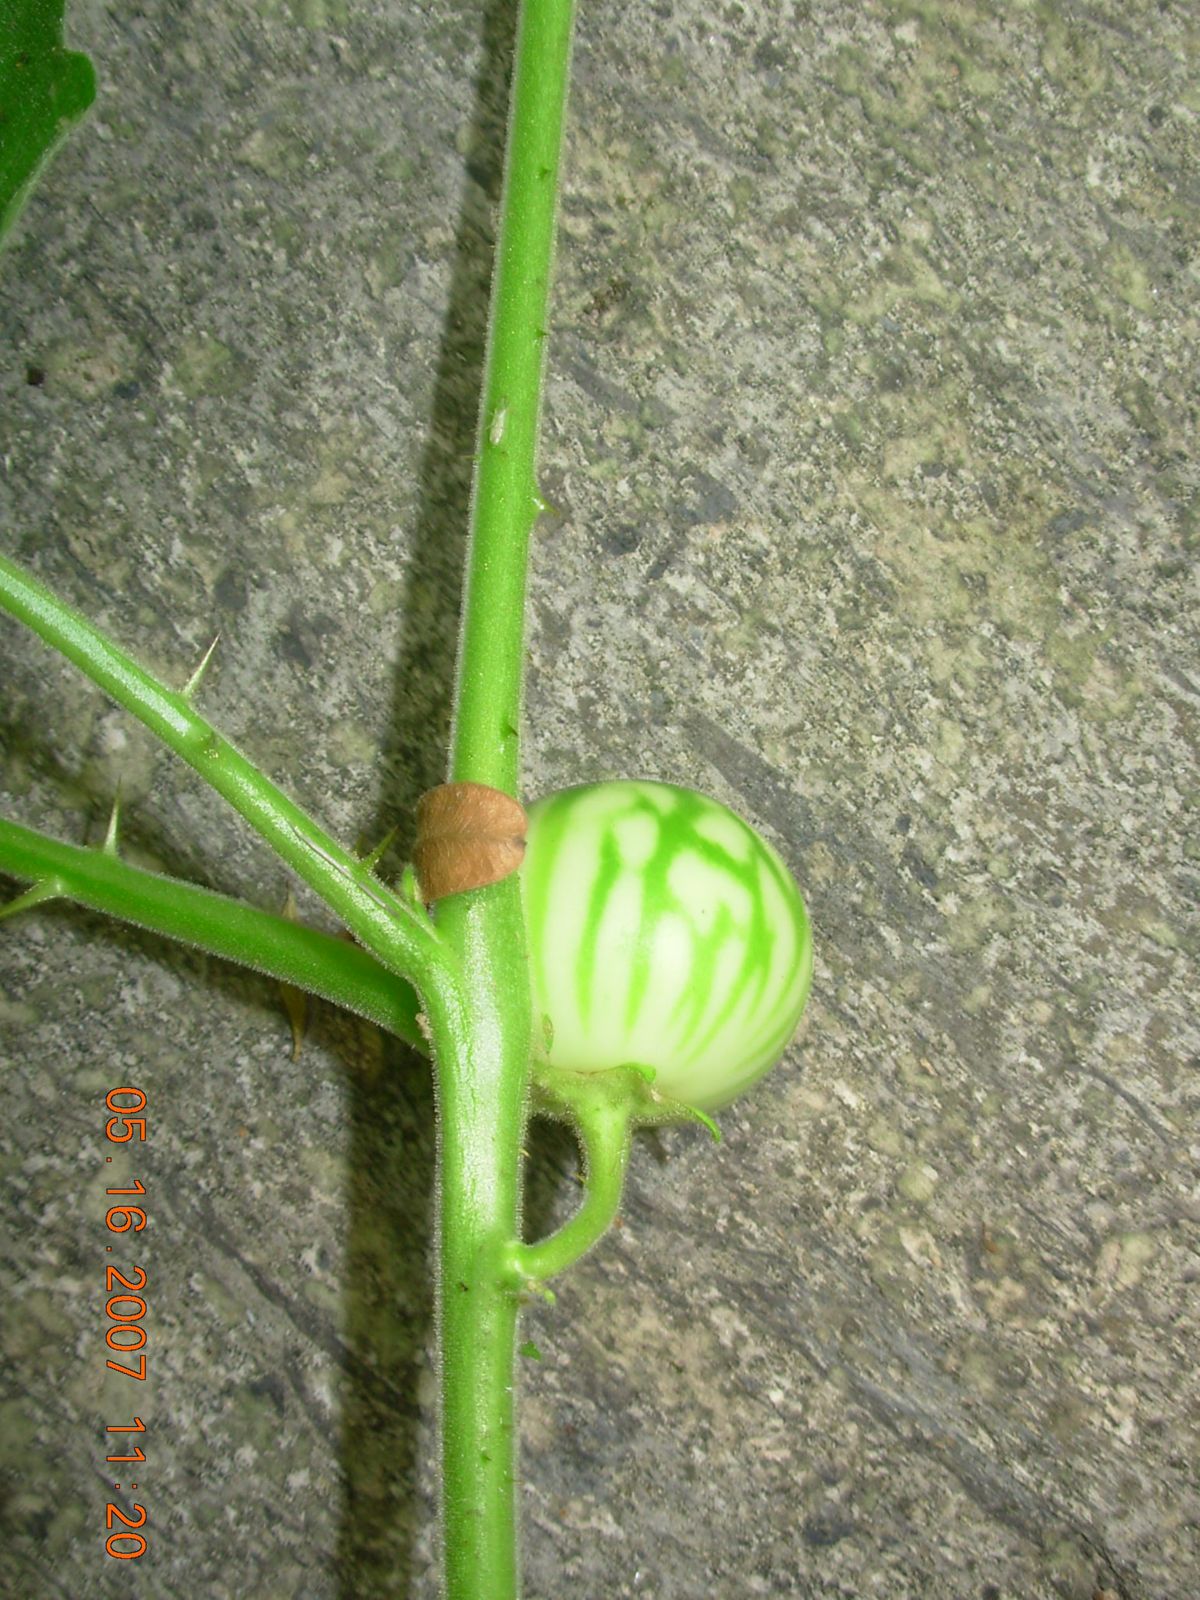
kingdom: Plantae
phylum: Tracheophyta
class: Magnoliopsida
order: Solanales
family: Solanaceae
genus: Solanum
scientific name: Solanum myriacanthum
